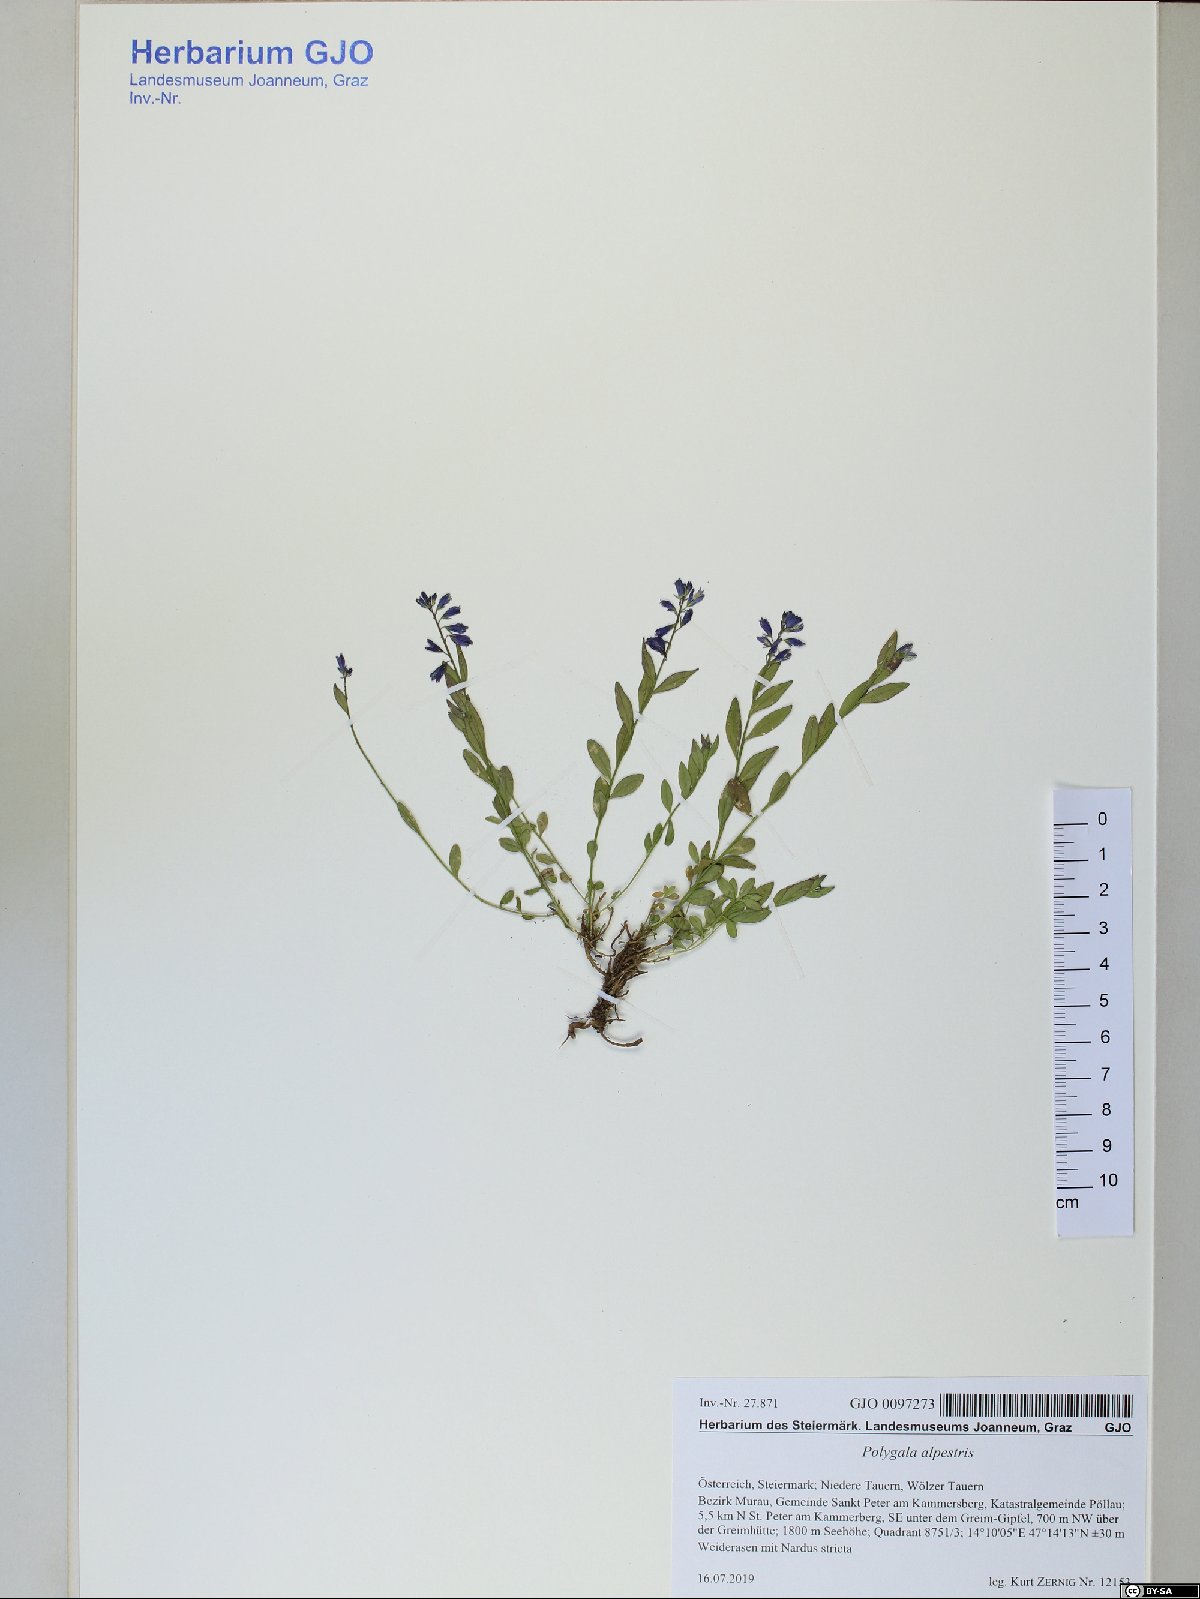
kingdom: Plantae
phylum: Tracheophyta
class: Magnoliopsida
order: Fabales
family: Polygalaceae
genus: Polygala
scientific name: Polygala alpestris
